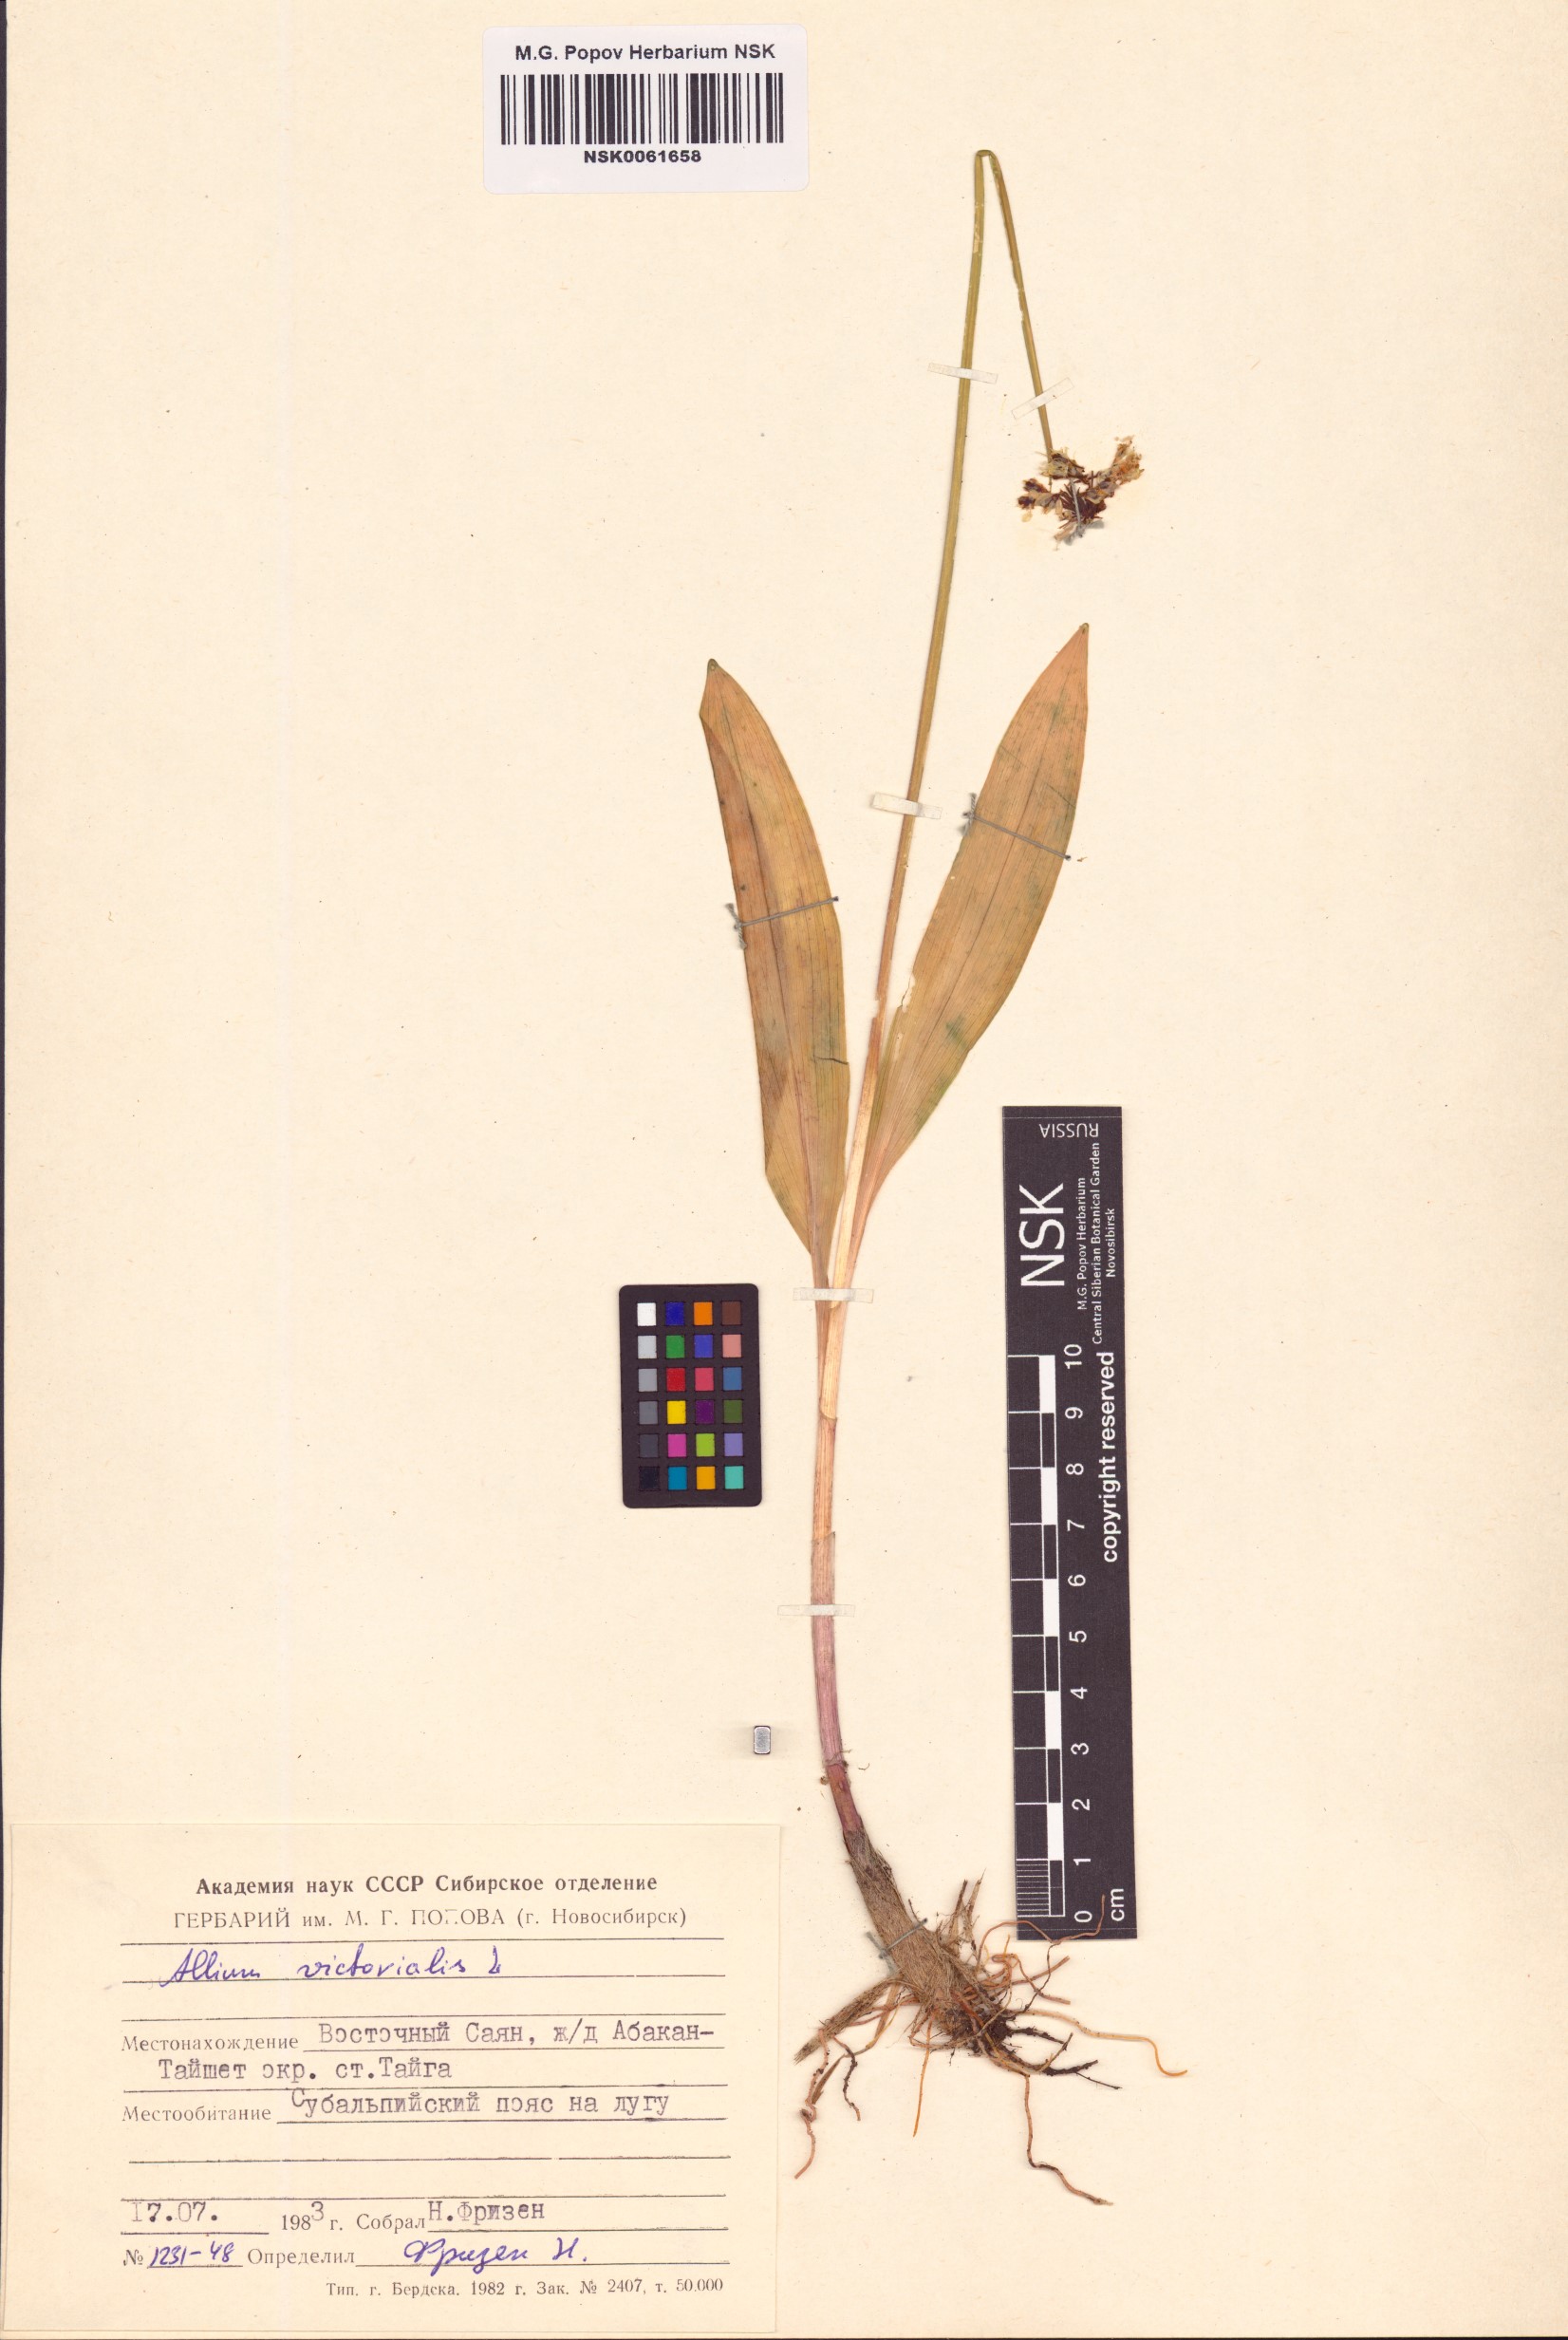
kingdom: Plantae
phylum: Tracheophyta
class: Liliopsida
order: Asparagales
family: Amaryllidaceae
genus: Allium
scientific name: Allium victorialis
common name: Alpine leek
